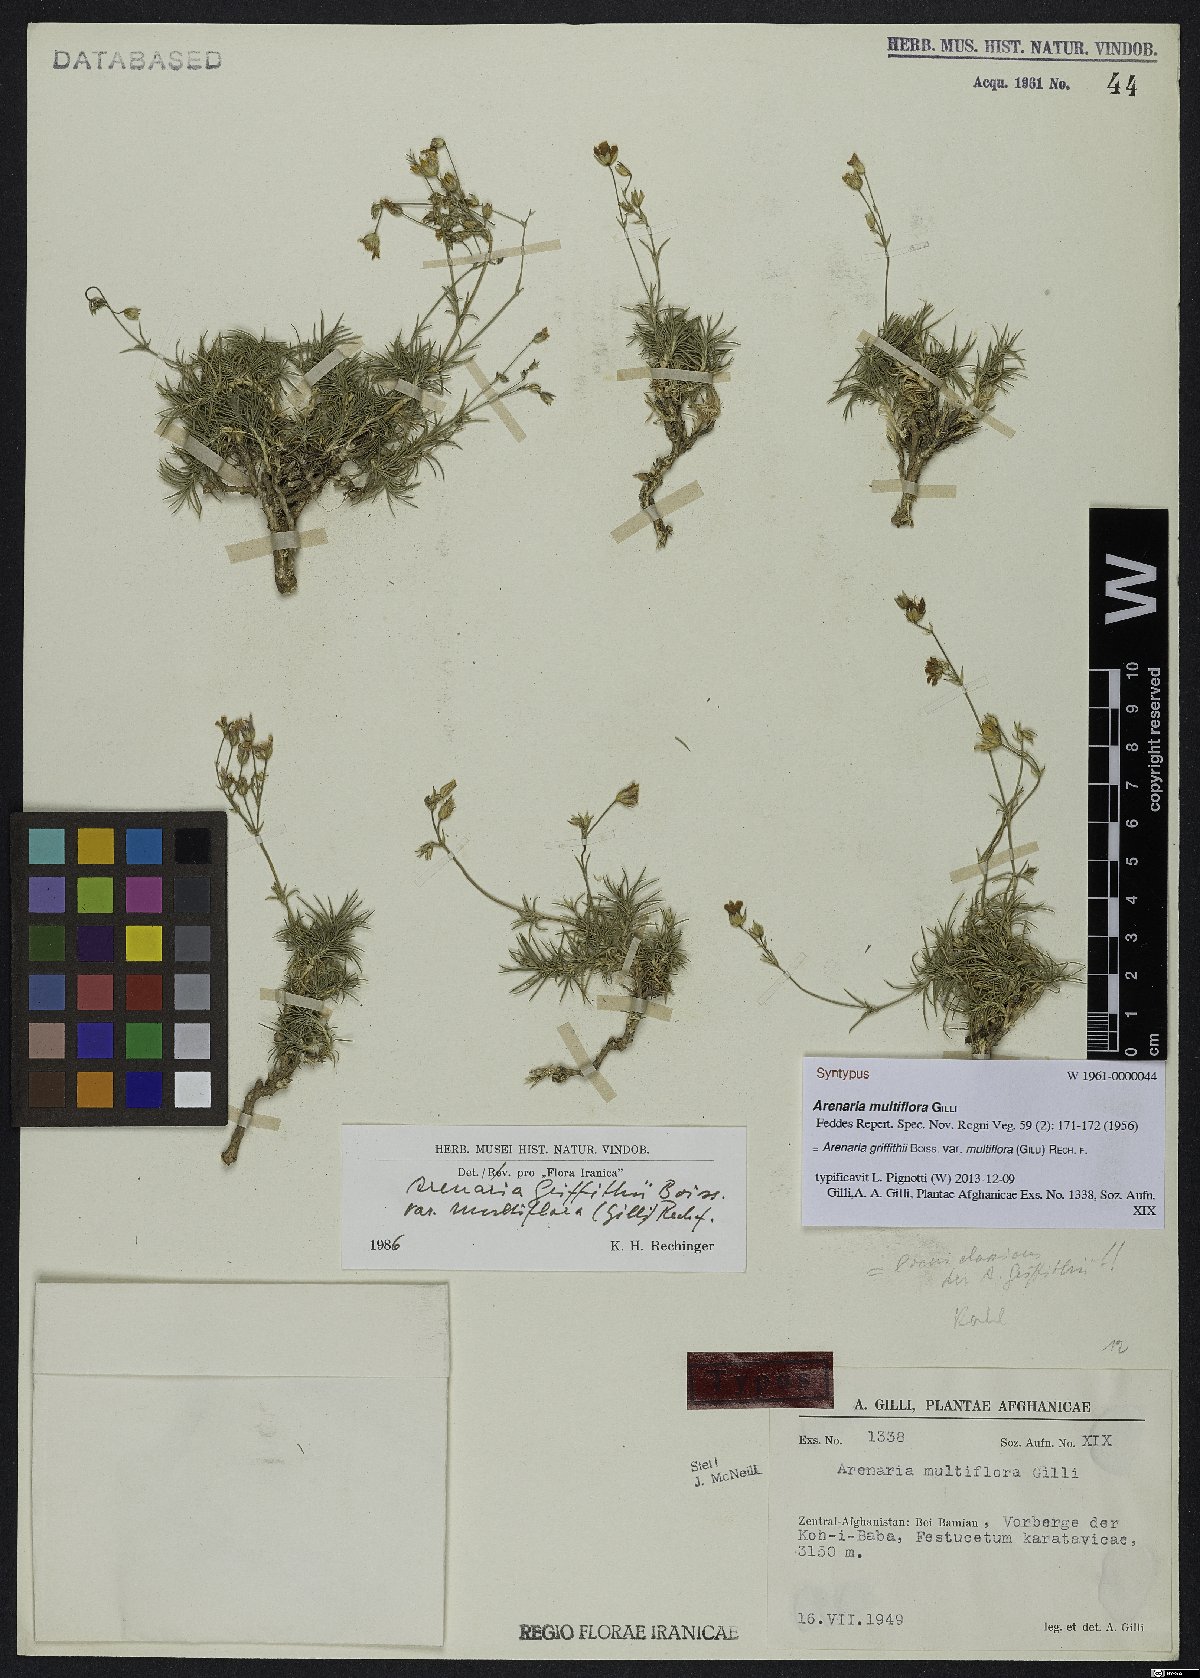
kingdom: Plantae
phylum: Tracheophyta
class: Magnoliopsida
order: Caryophyllales
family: Caryophyllaceae
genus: Eremogone
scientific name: Eremogone multiflora
